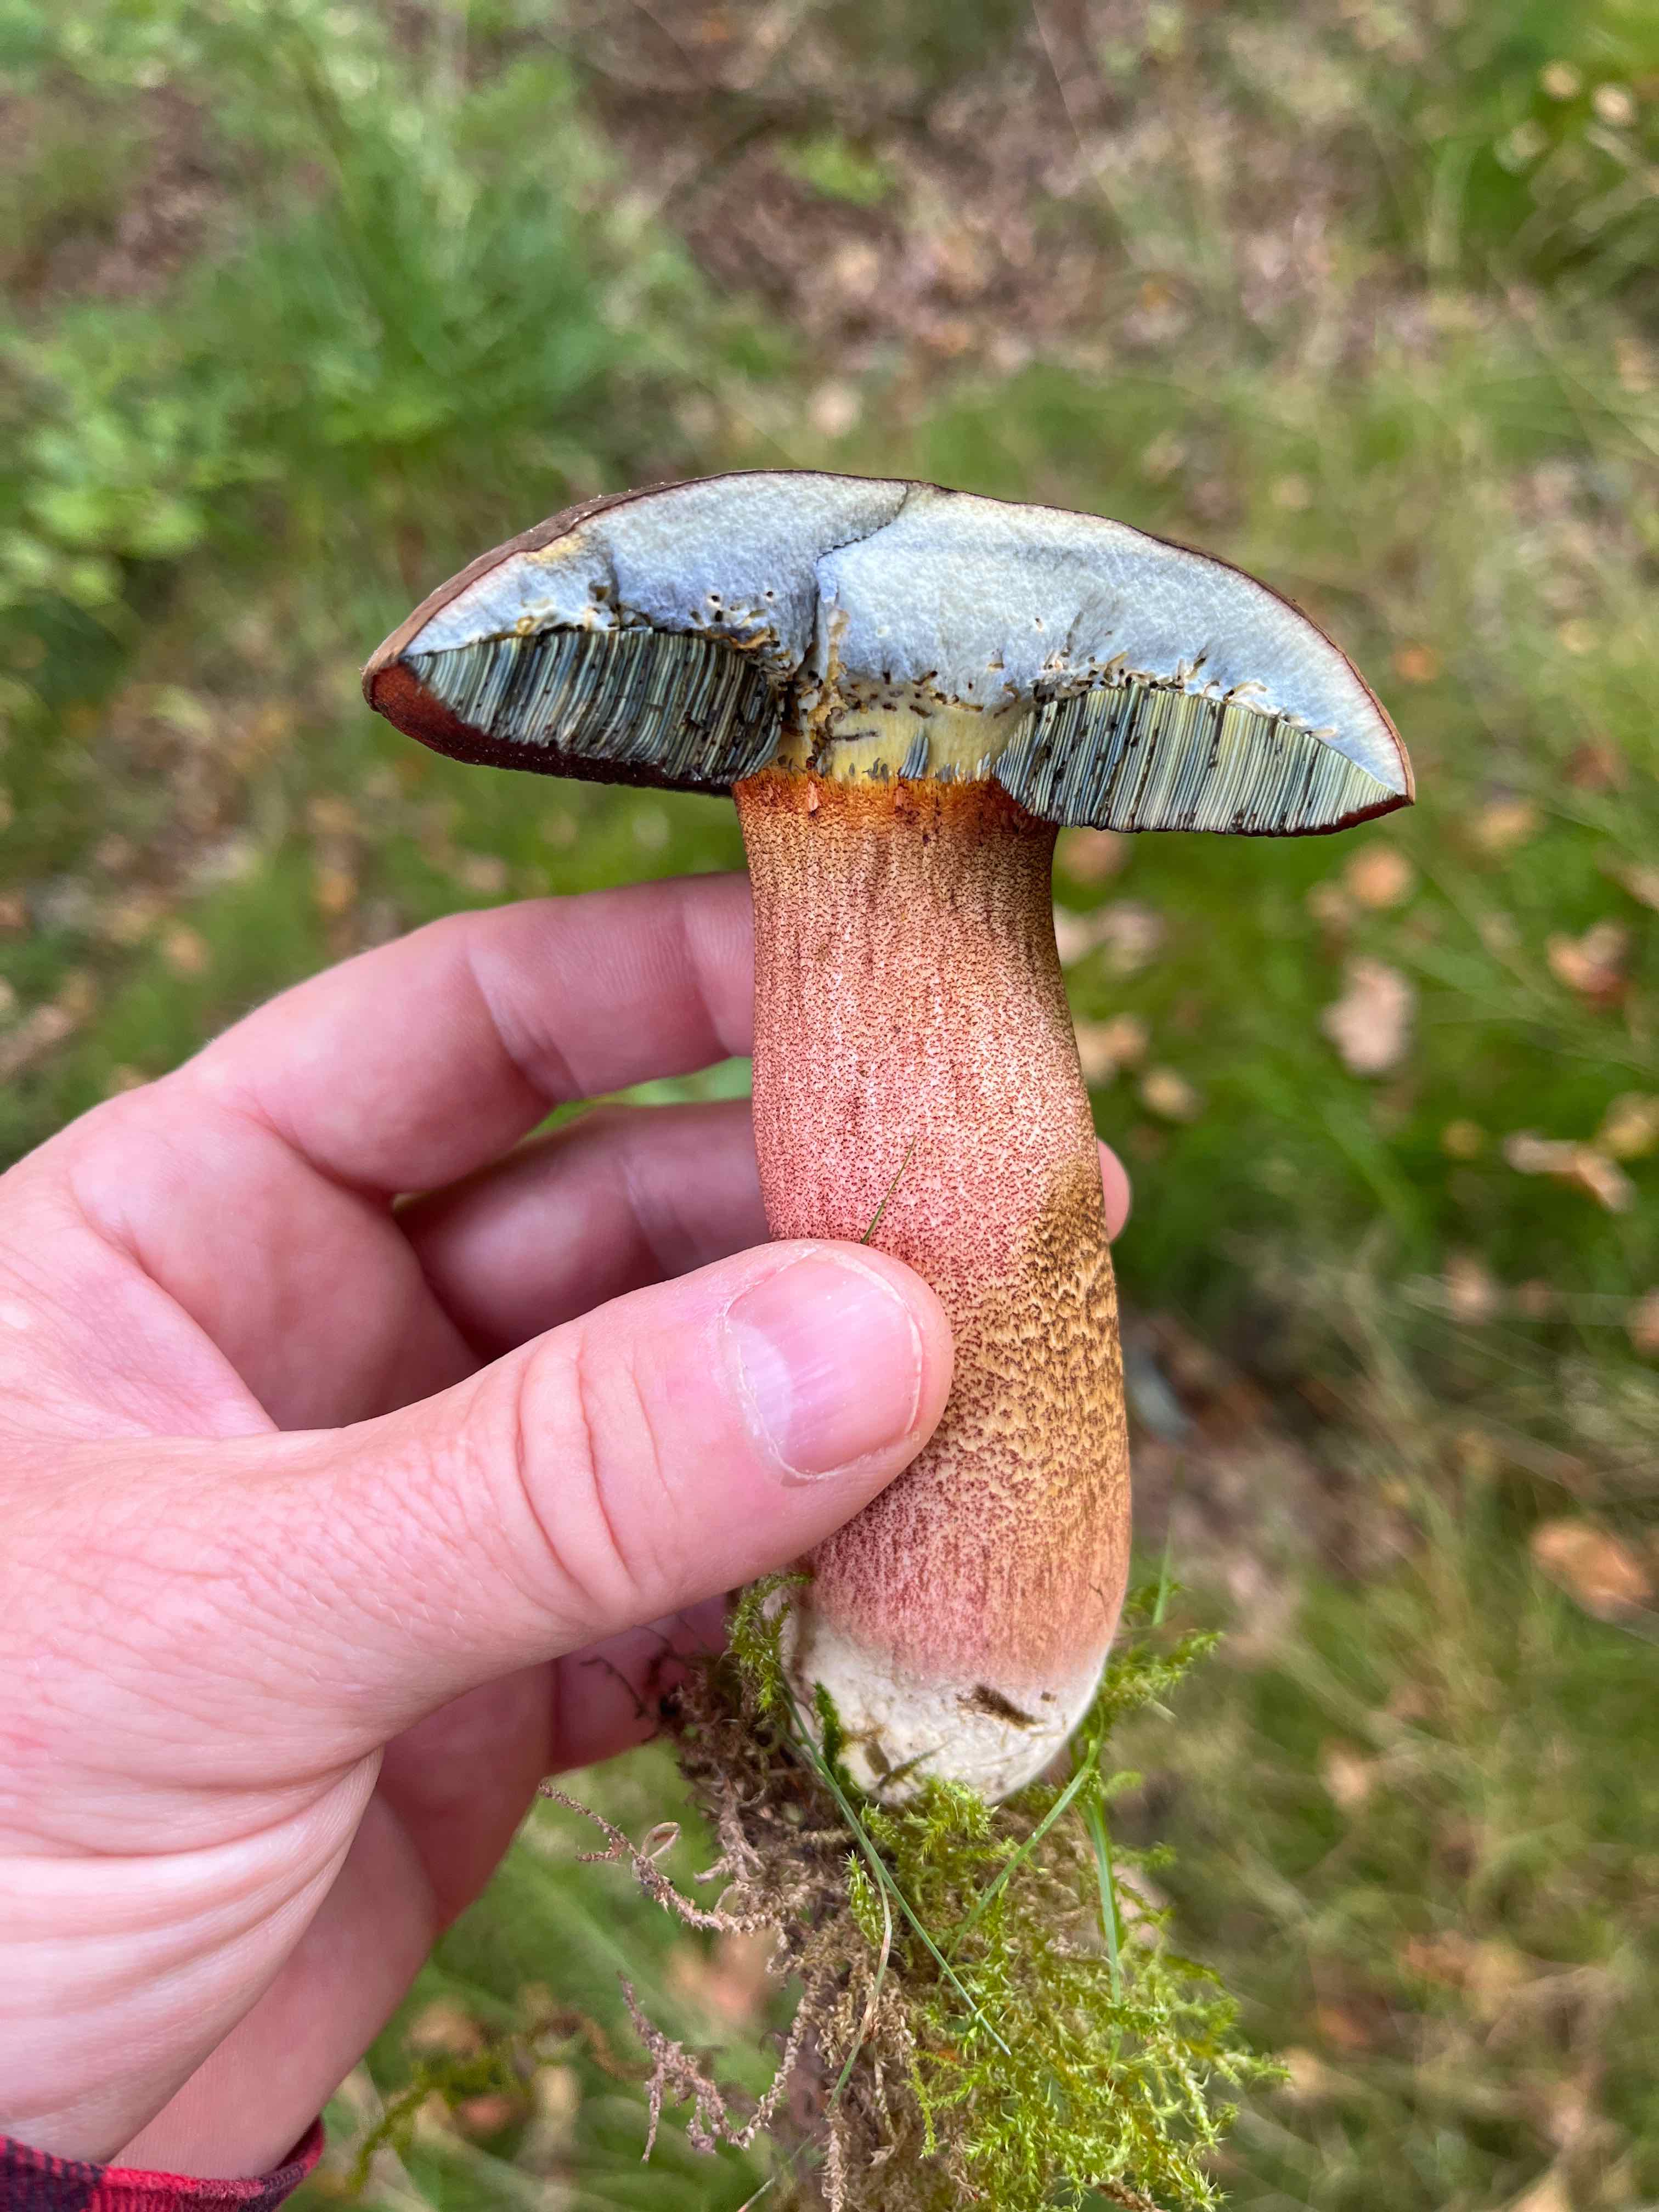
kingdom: Fungi
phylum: Basidiomycota
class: Agaricomycetes
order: Boletales
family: Boletaceae
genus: Neoboletus
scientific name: Neoboletus erythropus
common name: punktstokket indigorørhat
